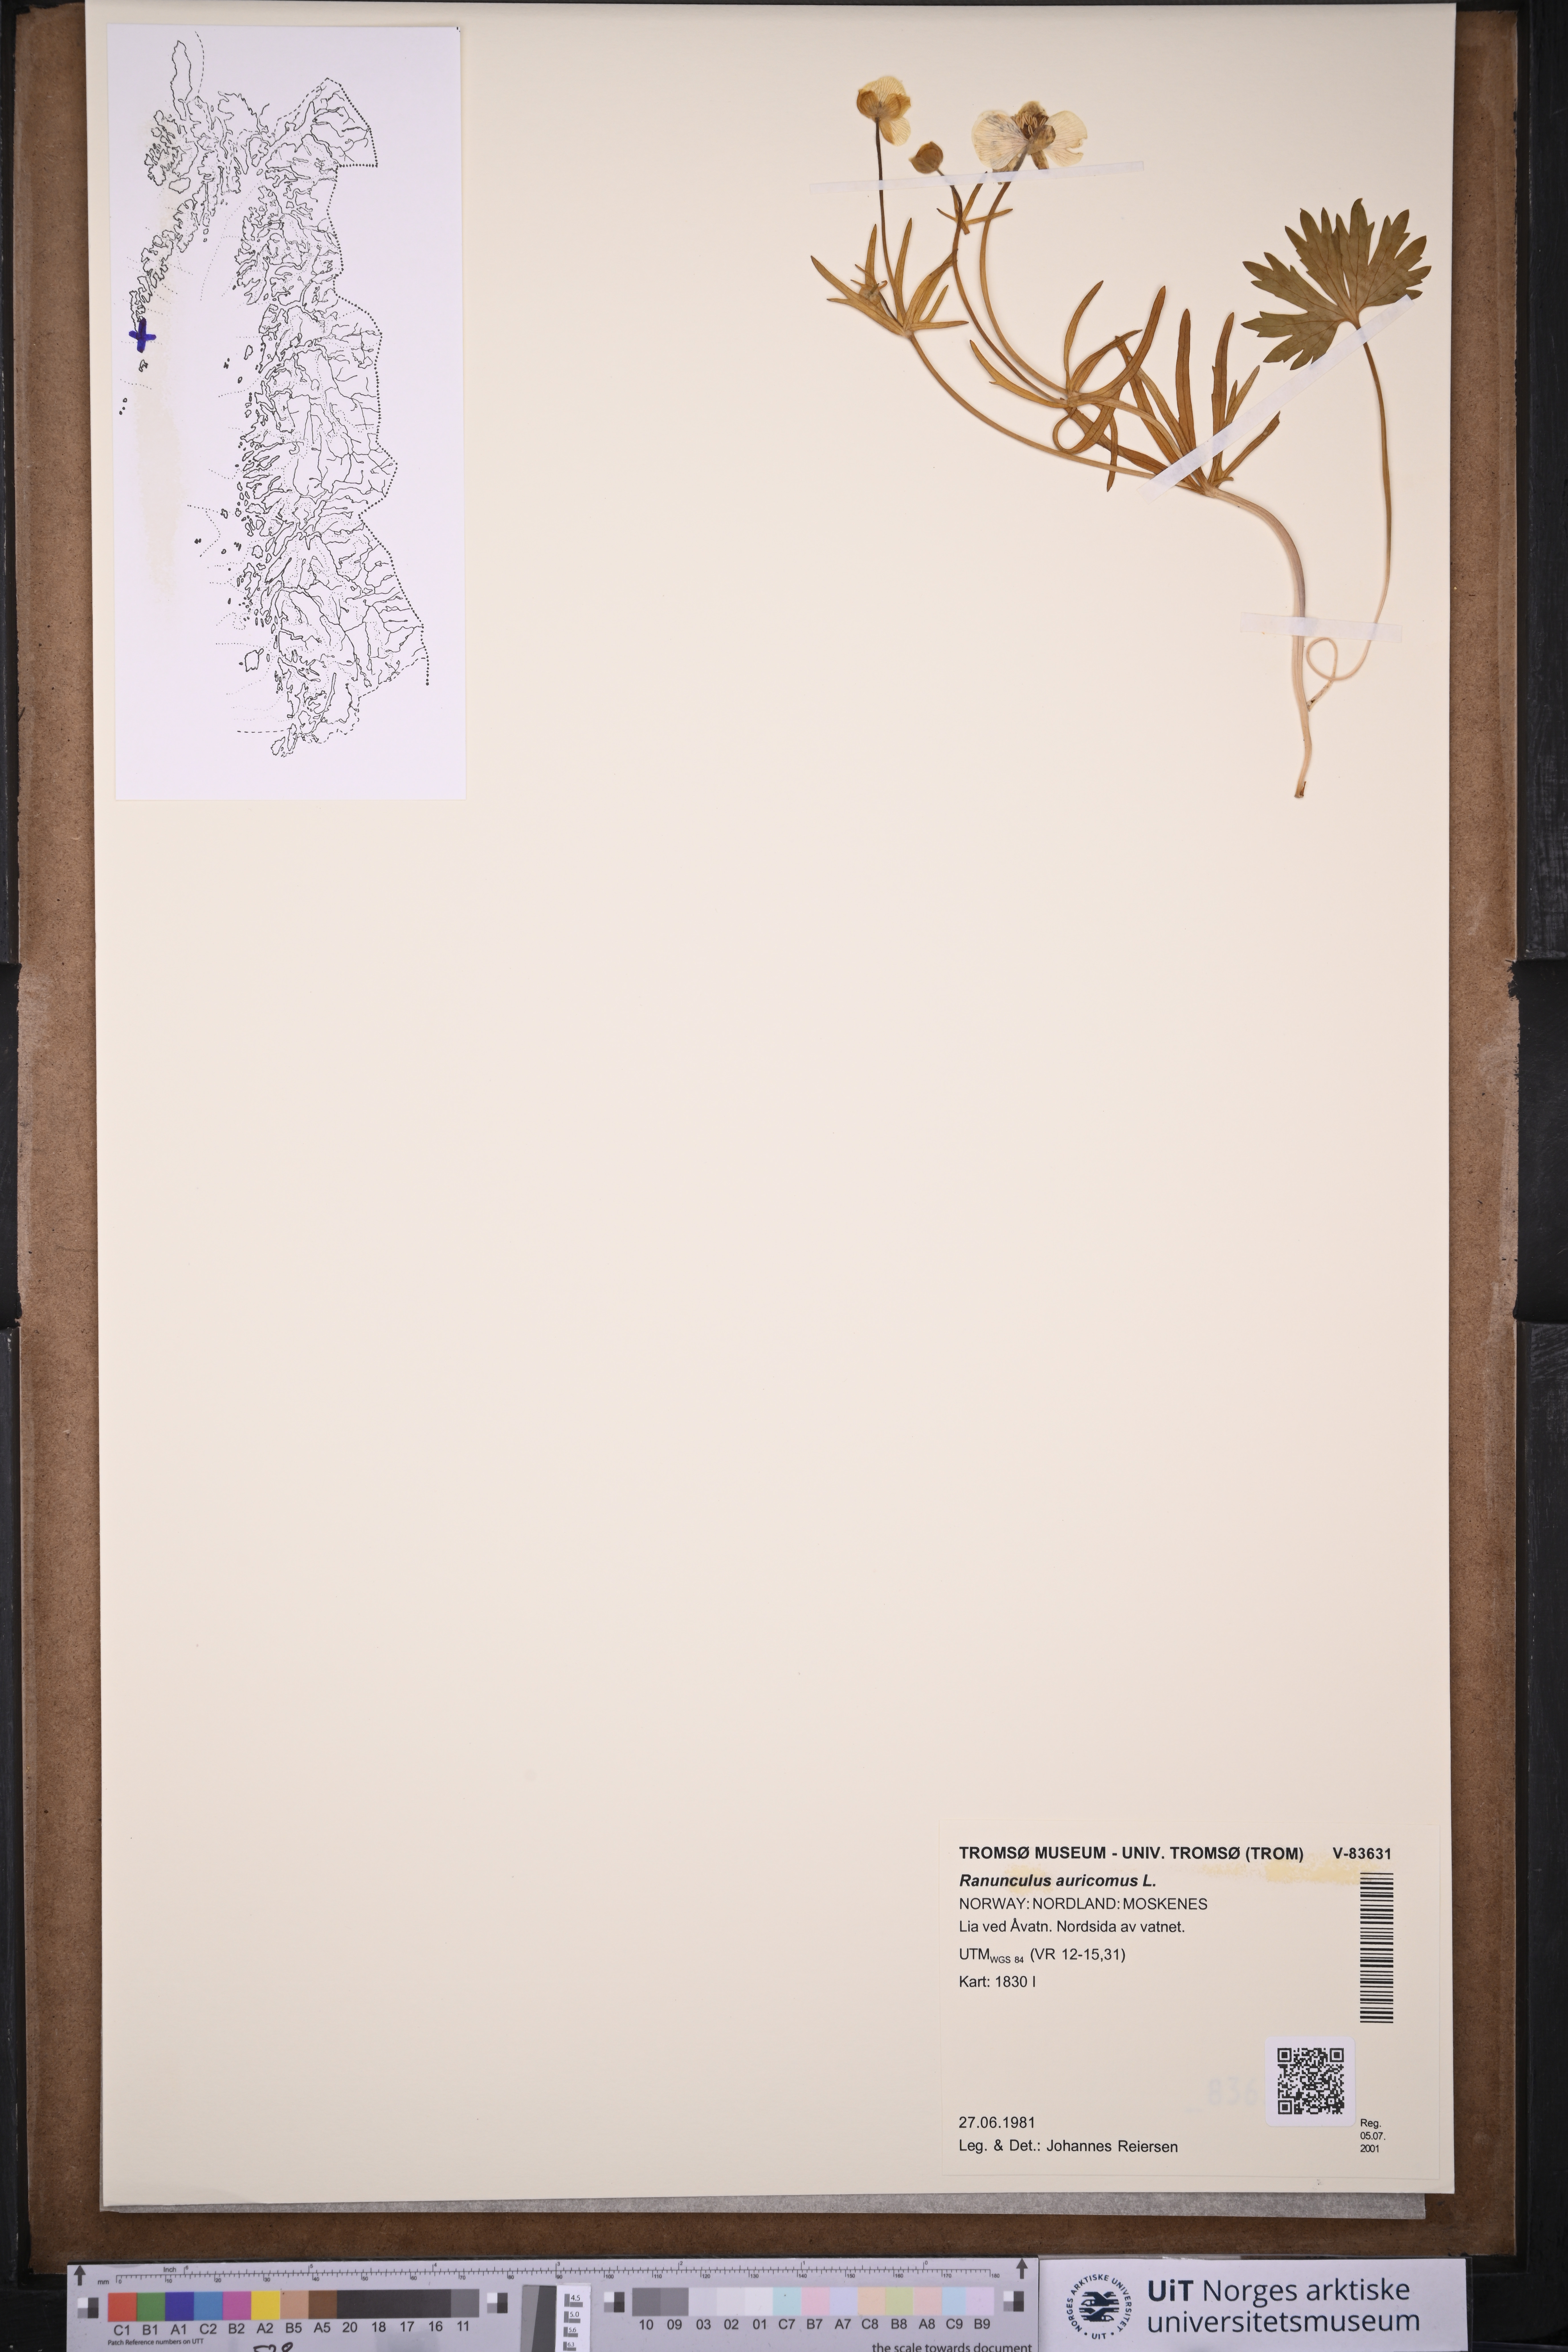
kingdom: Plantae
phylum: Tracheophyta
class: Magnoliopsida
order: Ranunculales
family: Ranunculaceae
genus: Ranunculus
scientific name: Ranunculus auricomus
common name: Goldilocks buttercup
